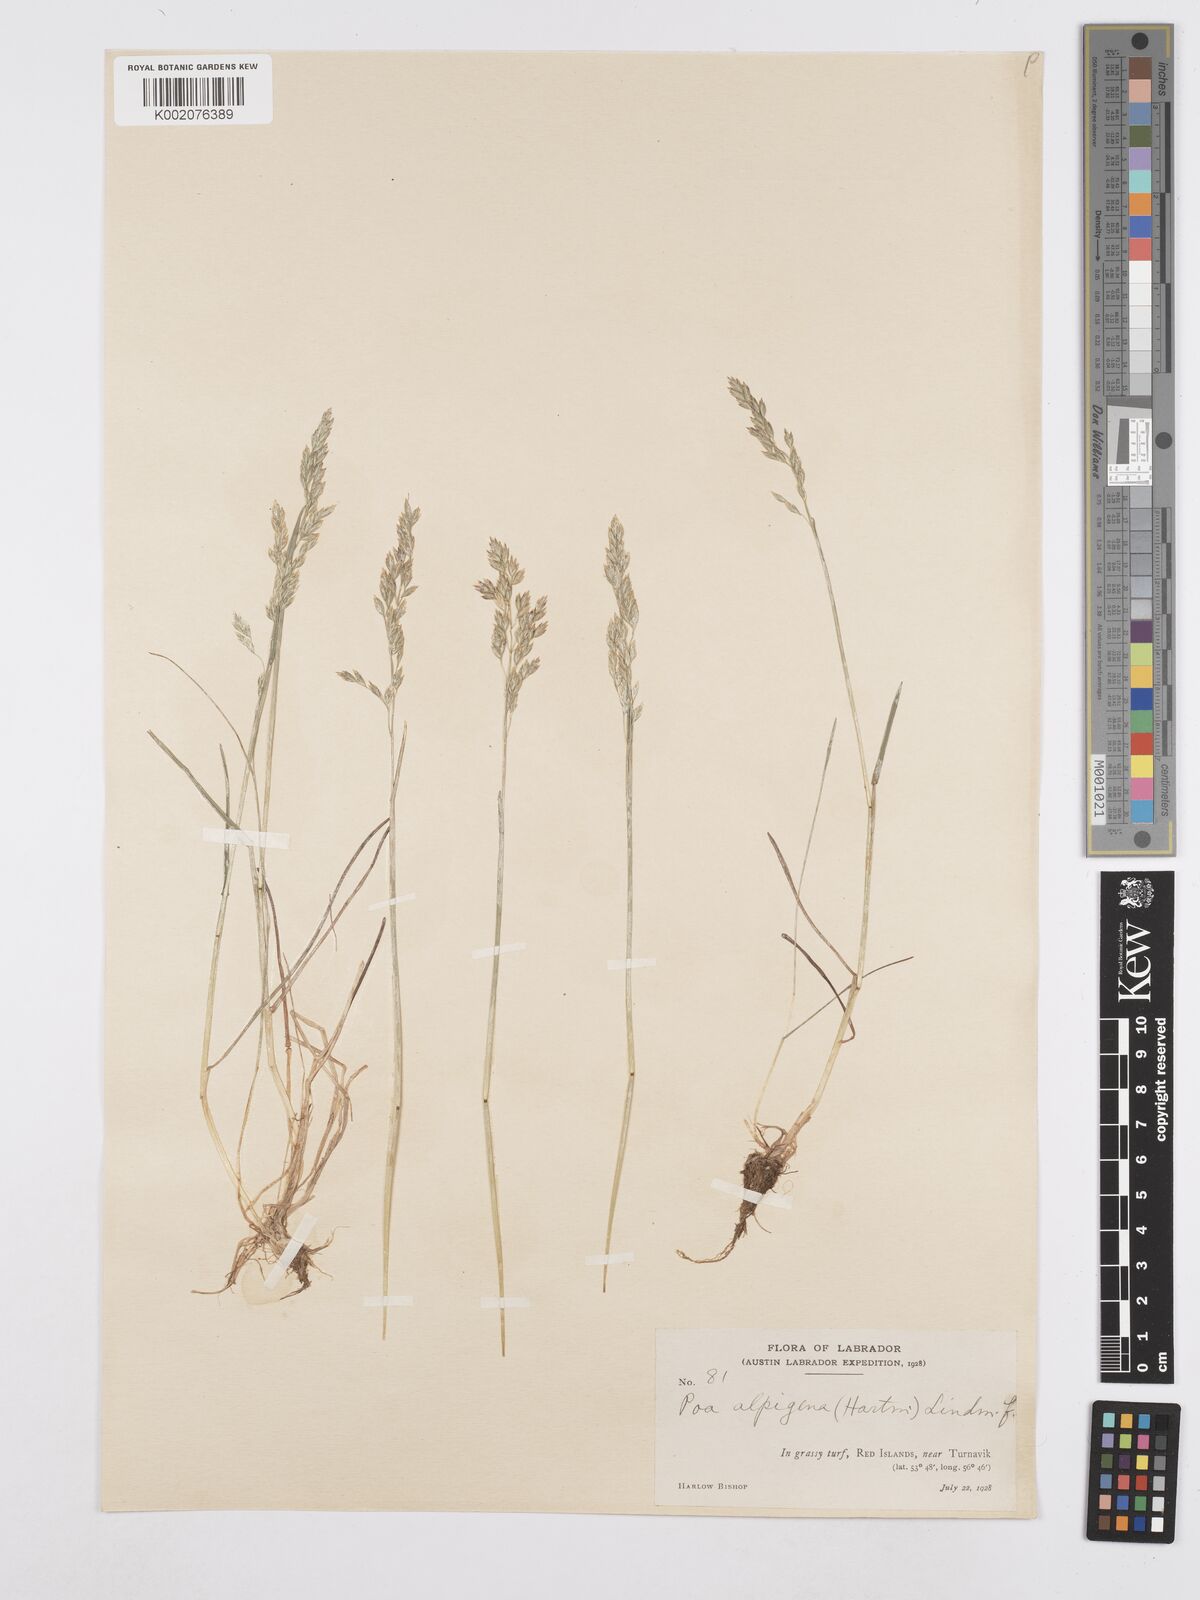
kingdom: Plantae
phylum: Tracheophyta
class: Liliopsida
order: Poales
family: Poaceae
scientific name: Poaceae
